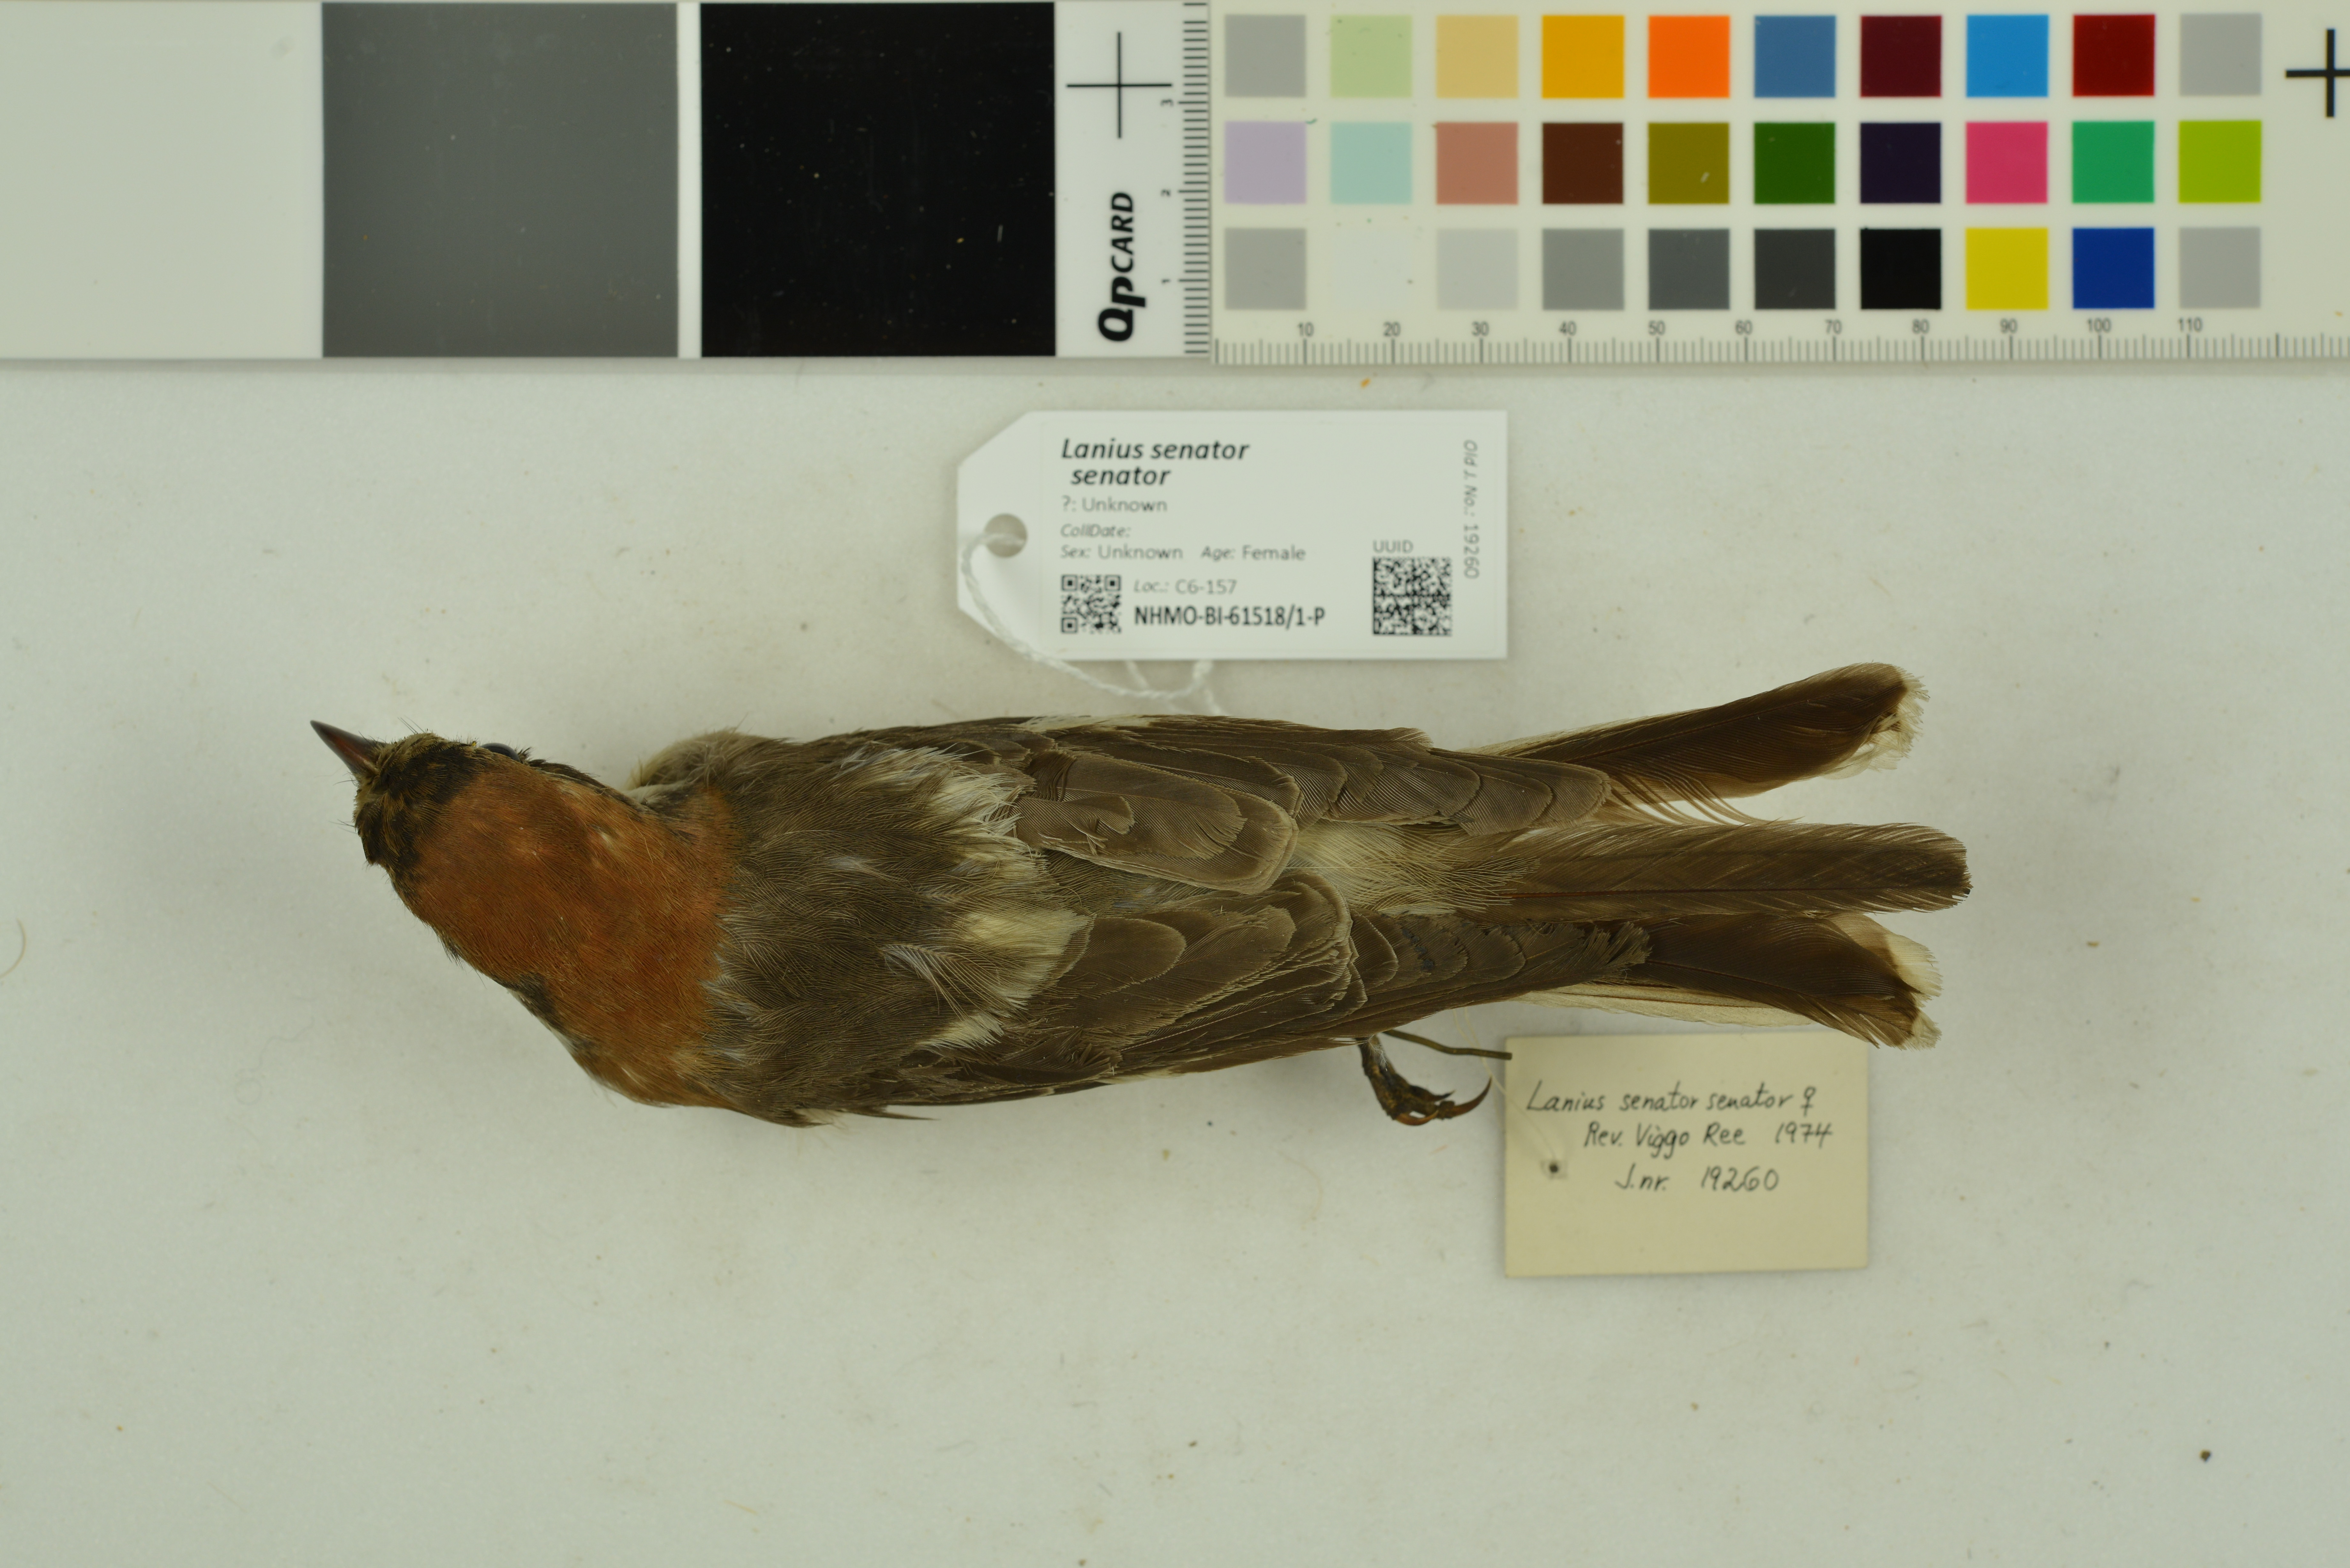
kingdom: Animalia
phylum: Chordata
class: Aves
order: Passeriformes
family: Laniidae
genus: Lanius
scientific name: Lanius senator
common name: Woodchat shrike
